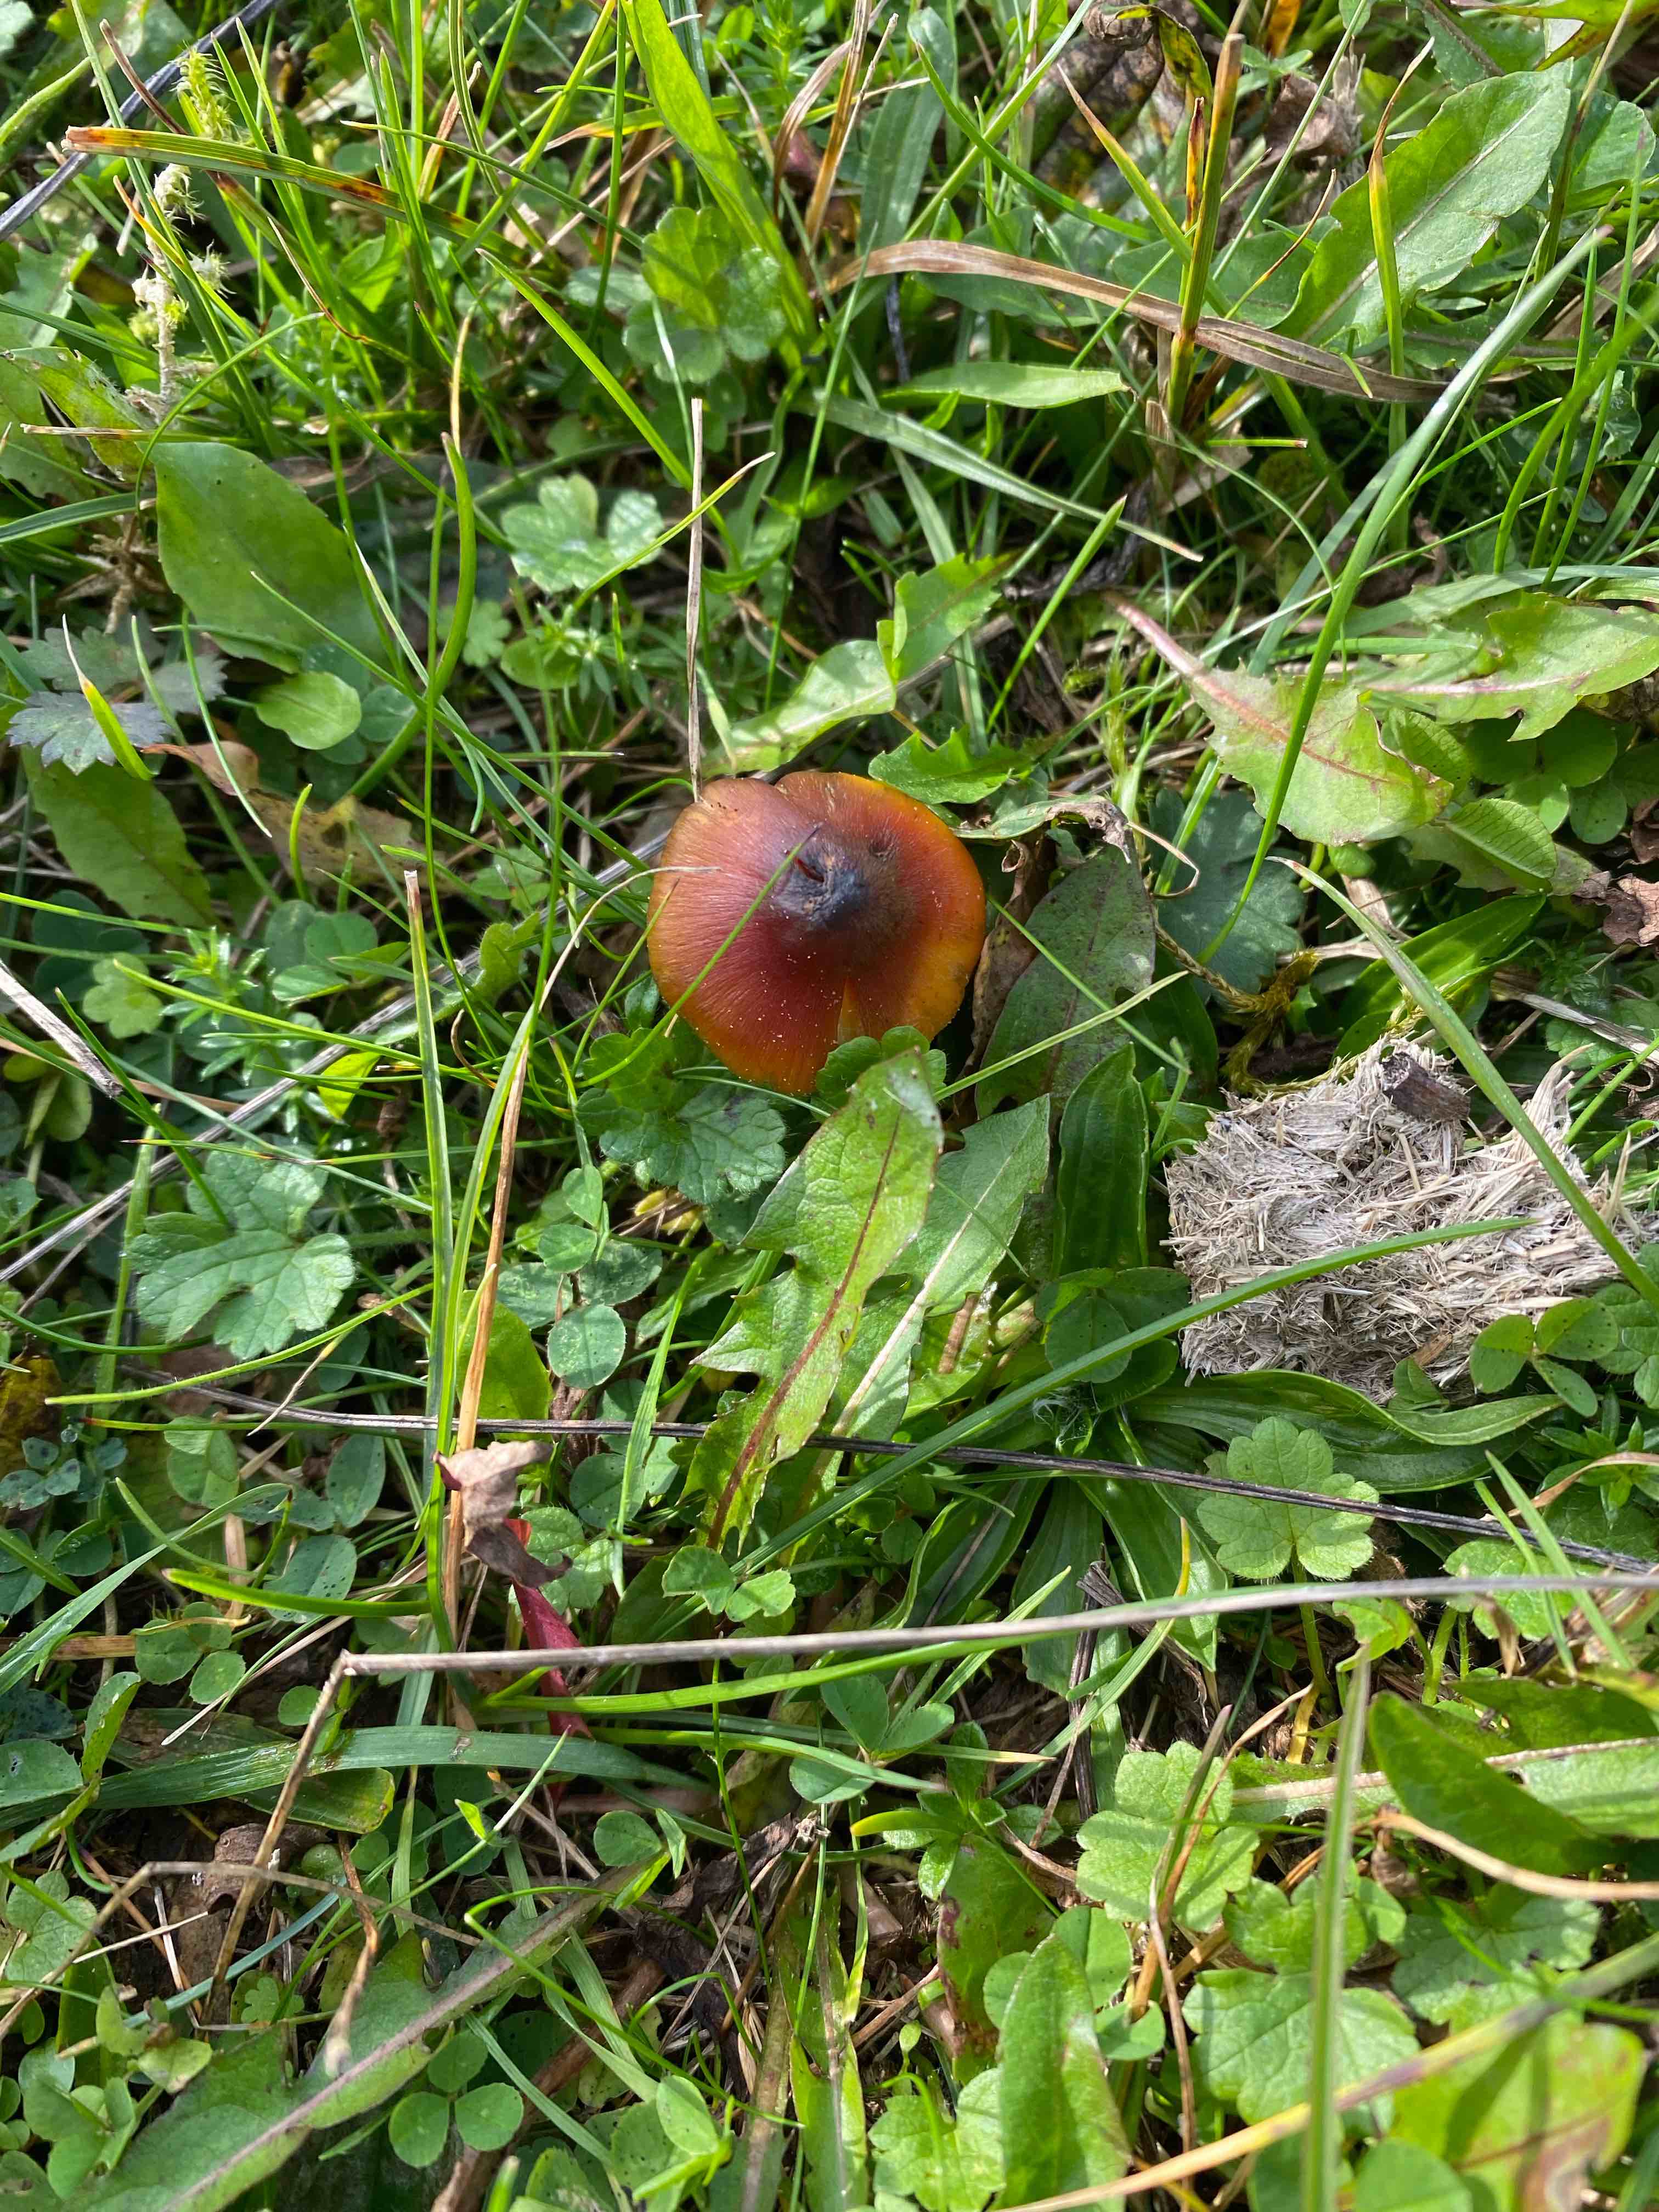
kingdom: Fungi
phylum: Basidiomycota
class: Agaricomycetes
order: Agaricales
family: Hygrophoraceae
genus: Hygrocybe
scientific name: Hygrocybe conica
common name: kegle-vokshat
